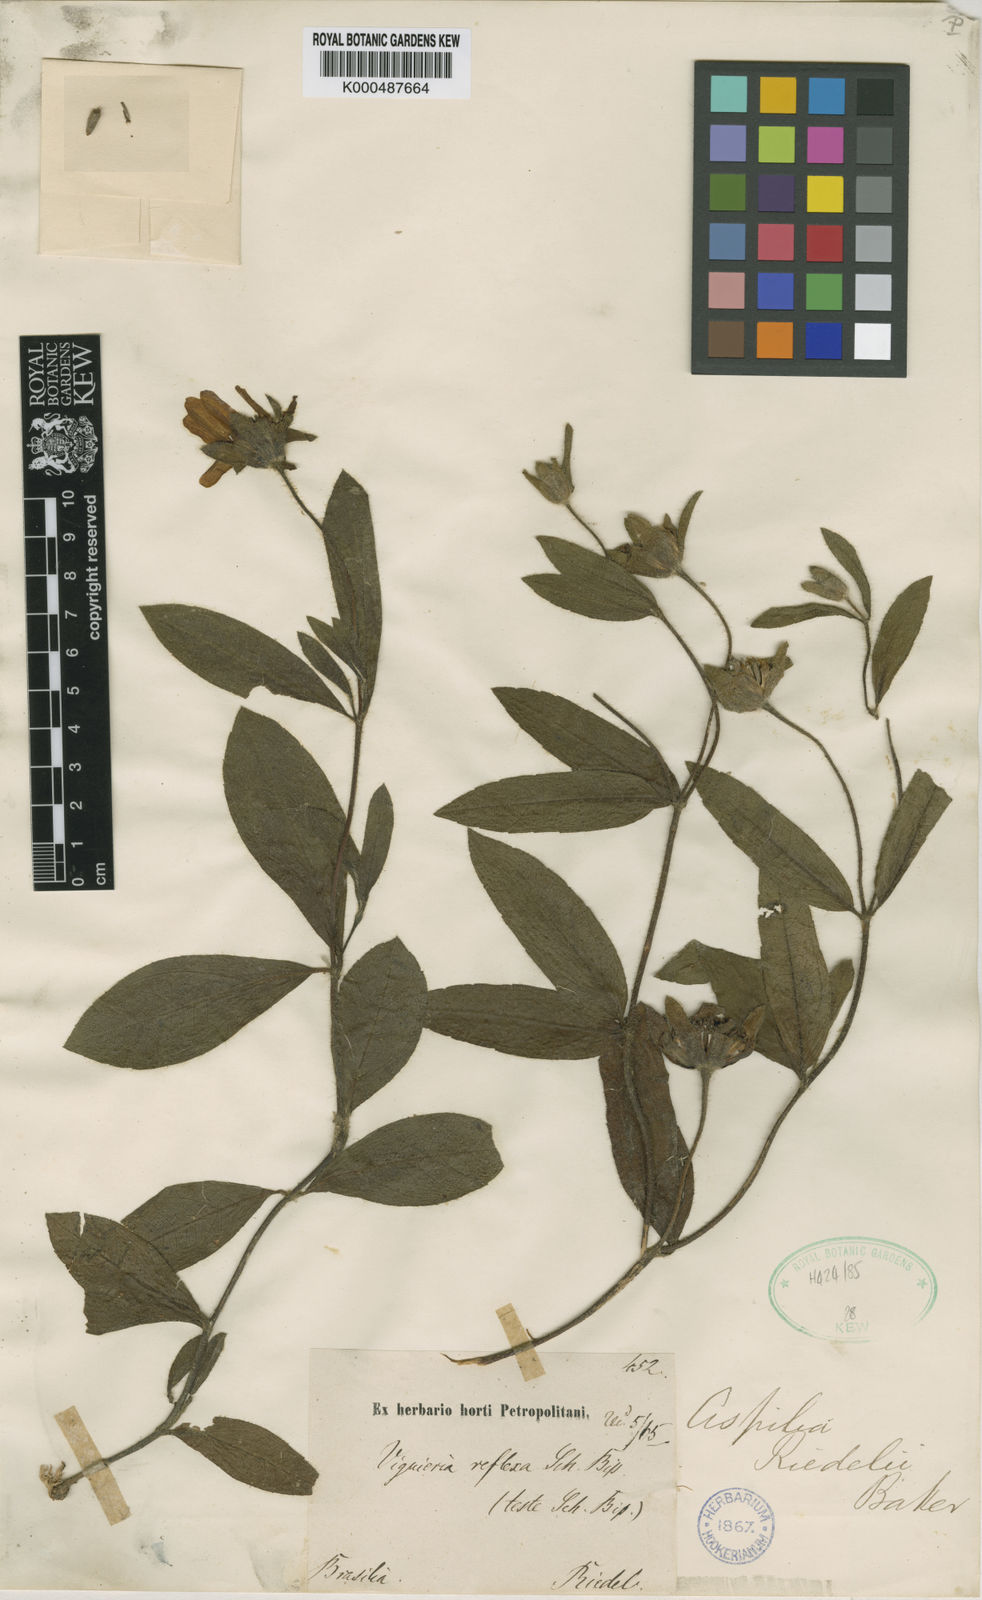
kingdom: Plantae
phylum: Tracheophyta
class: Magnoliopsida
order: Asterales
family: Asteraceae
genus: Wedelia
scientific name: Wedelia riedellii
